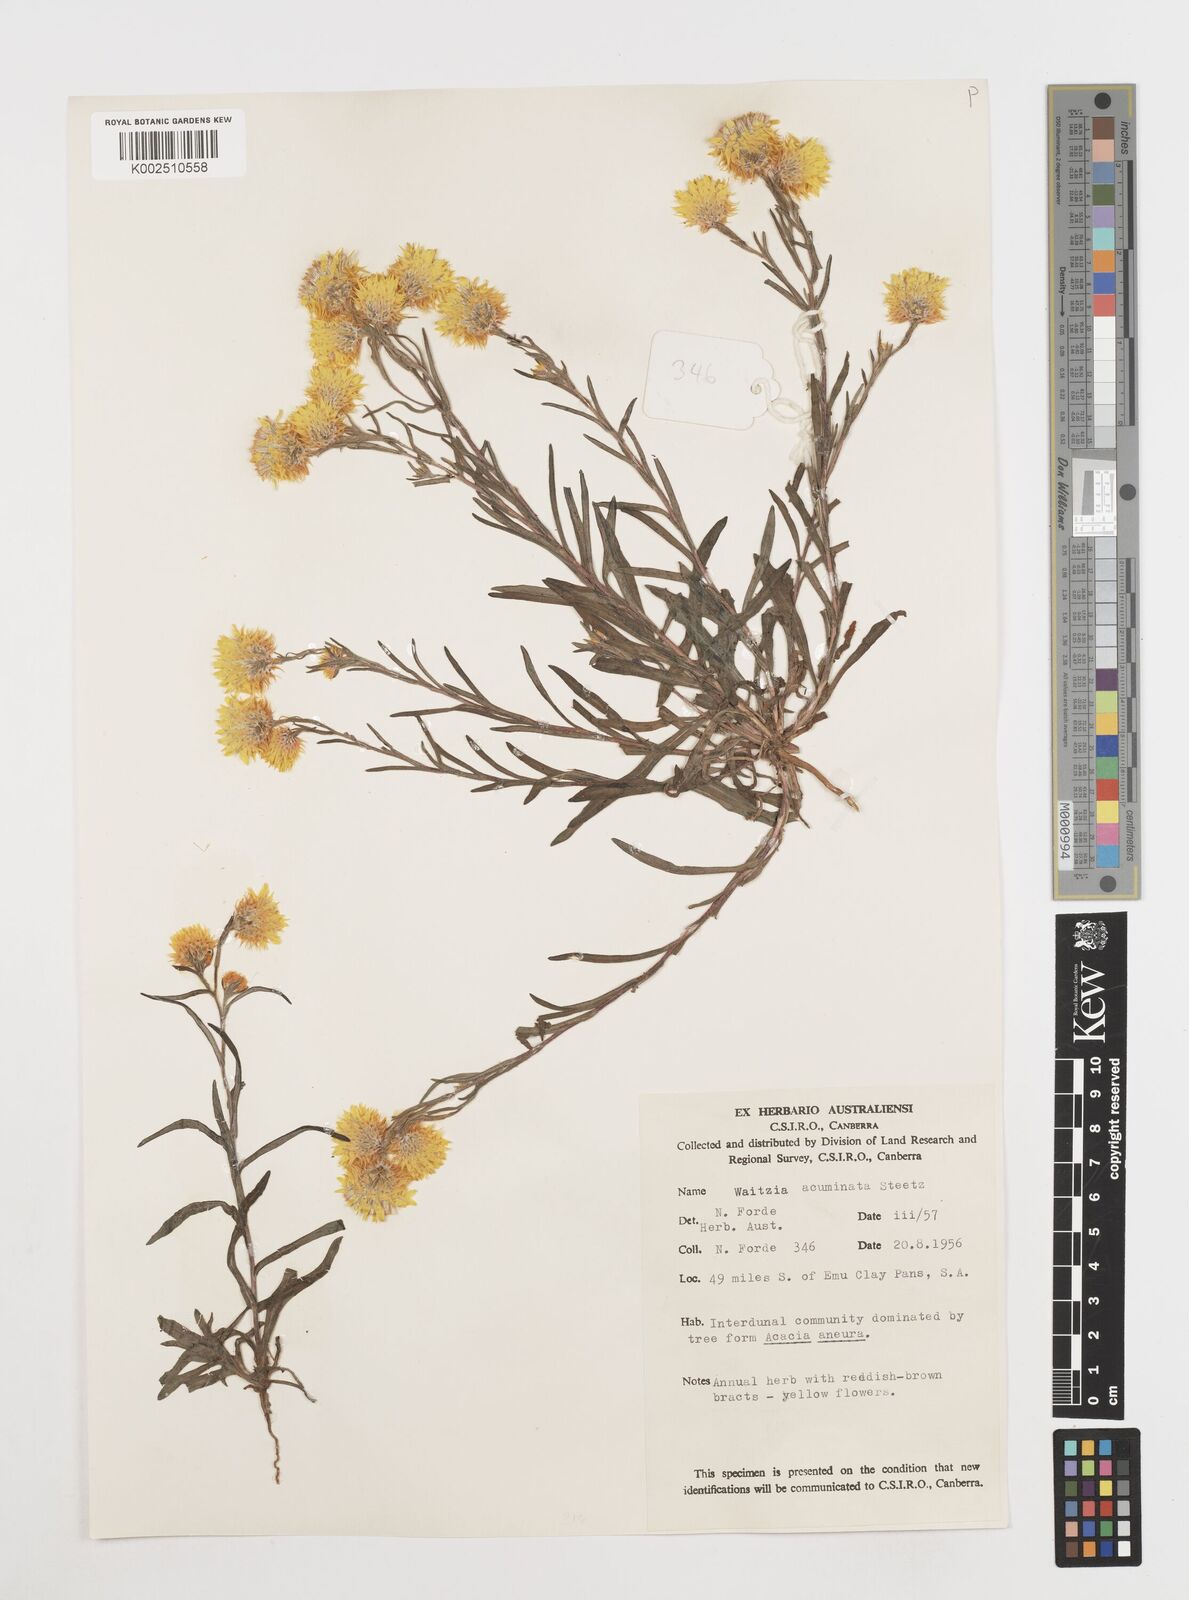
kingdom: Plantae
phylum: Tracheophyta
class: Magnoliopsida
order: Asterales
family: Asteraceae
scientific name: Asteraceae
